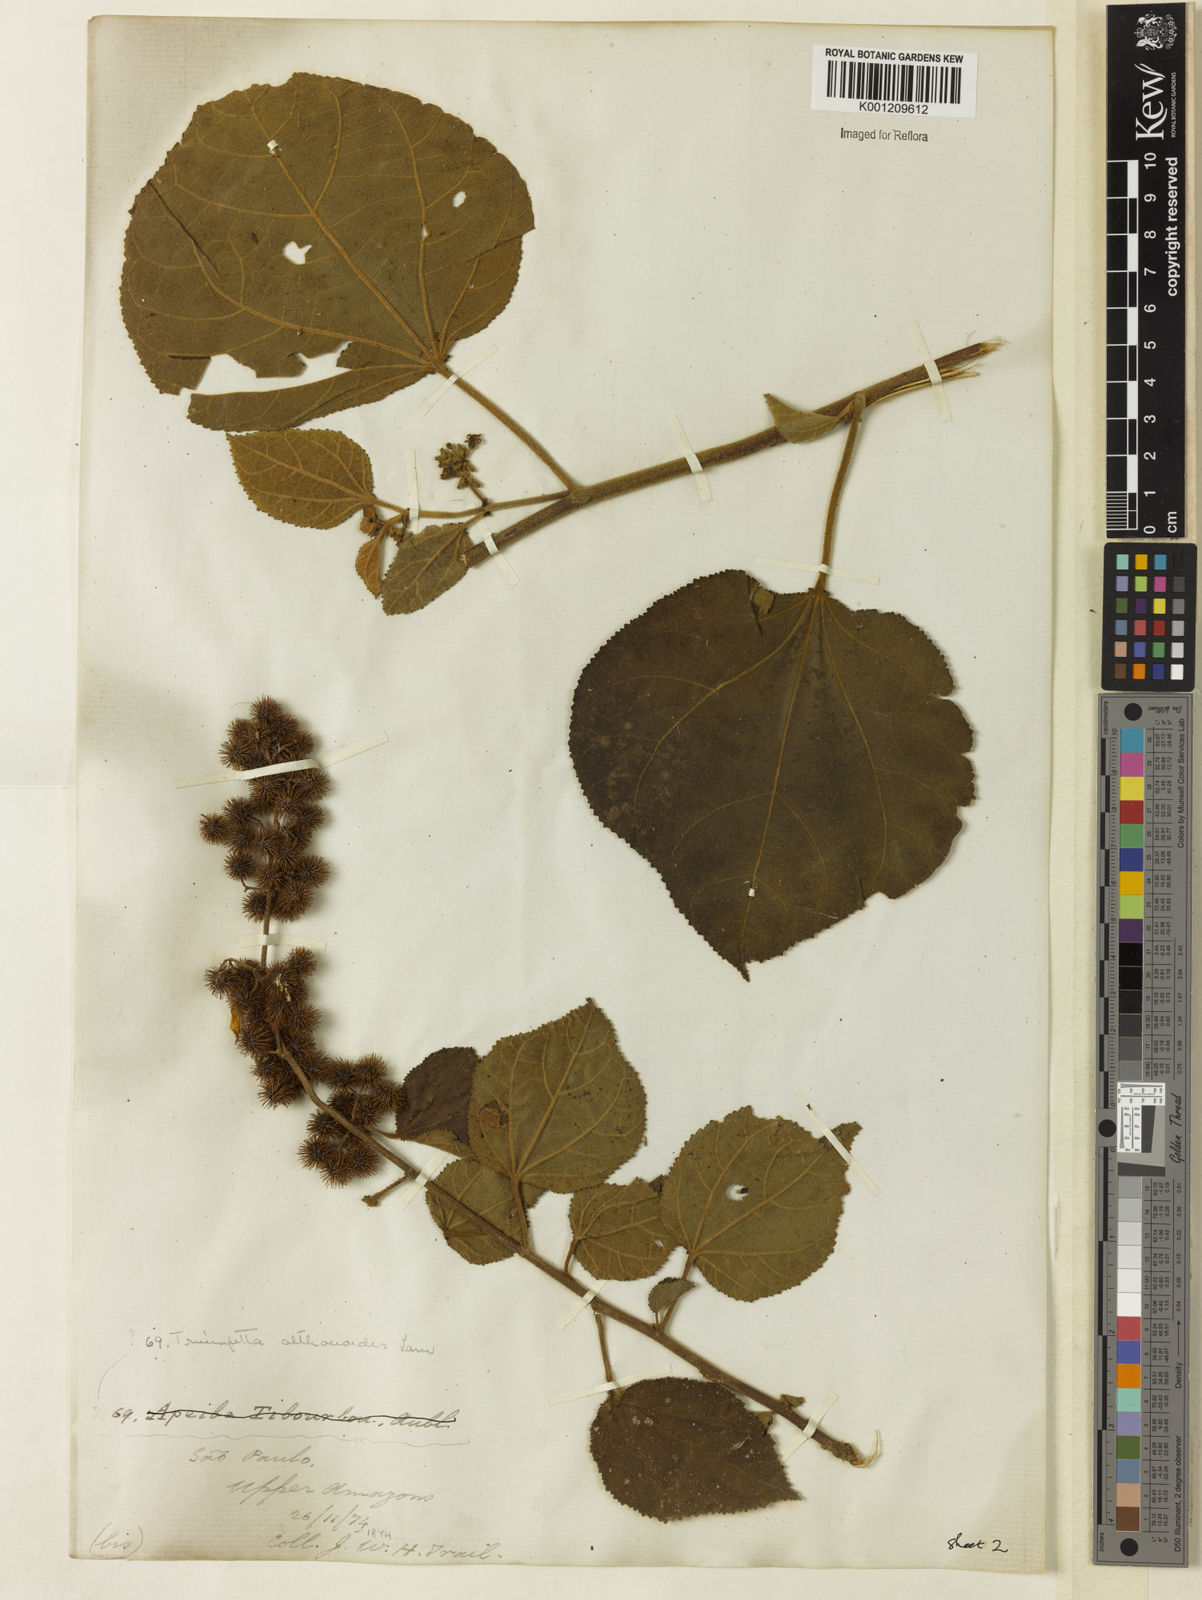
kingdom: Plantae
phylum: Tracheophyta
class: Magnoliopsida
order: Malvales
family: Malvaceae
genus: Triumfetta
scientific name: Triumfetta
